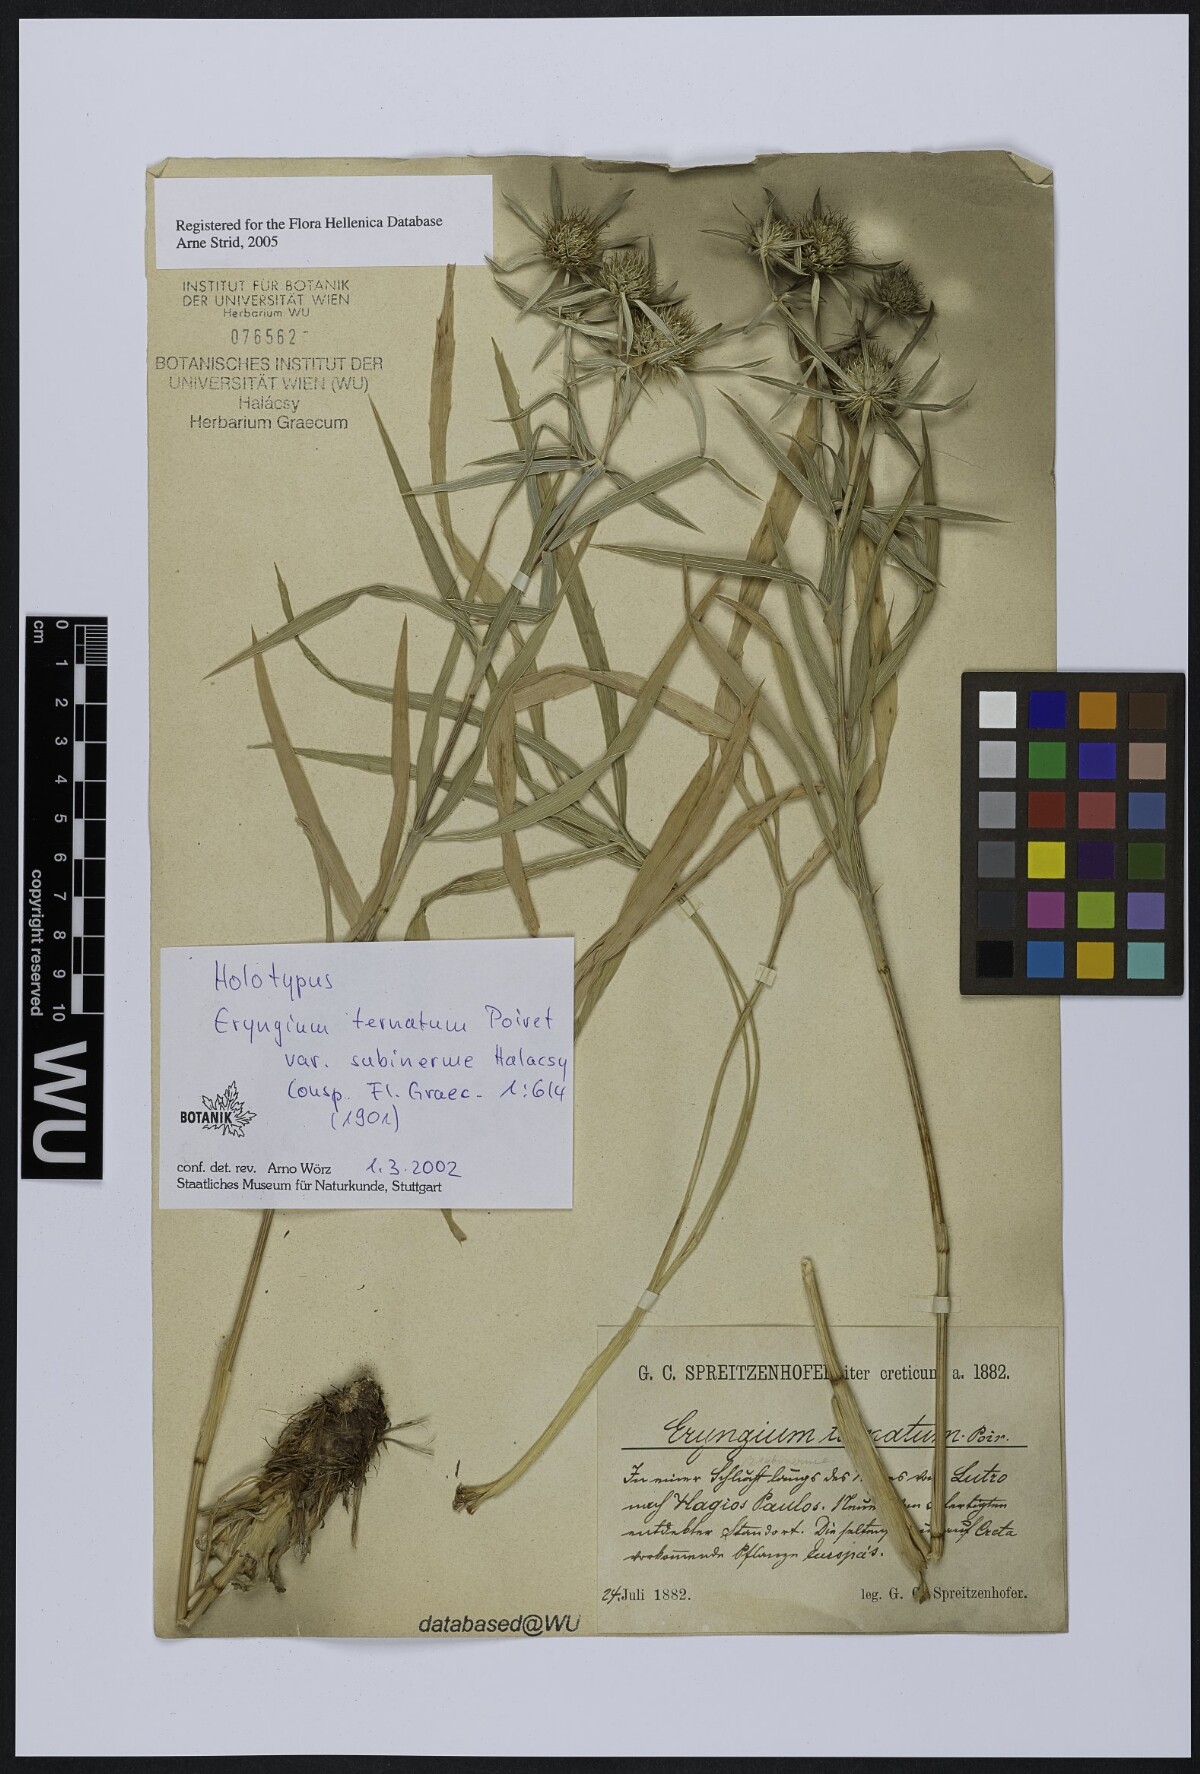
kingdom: Plantae
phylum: Tracheophyta
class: Magnoliopsida
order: Apiales
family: Apiaceae
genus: Eryngium
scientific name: Eryngium ternatum
